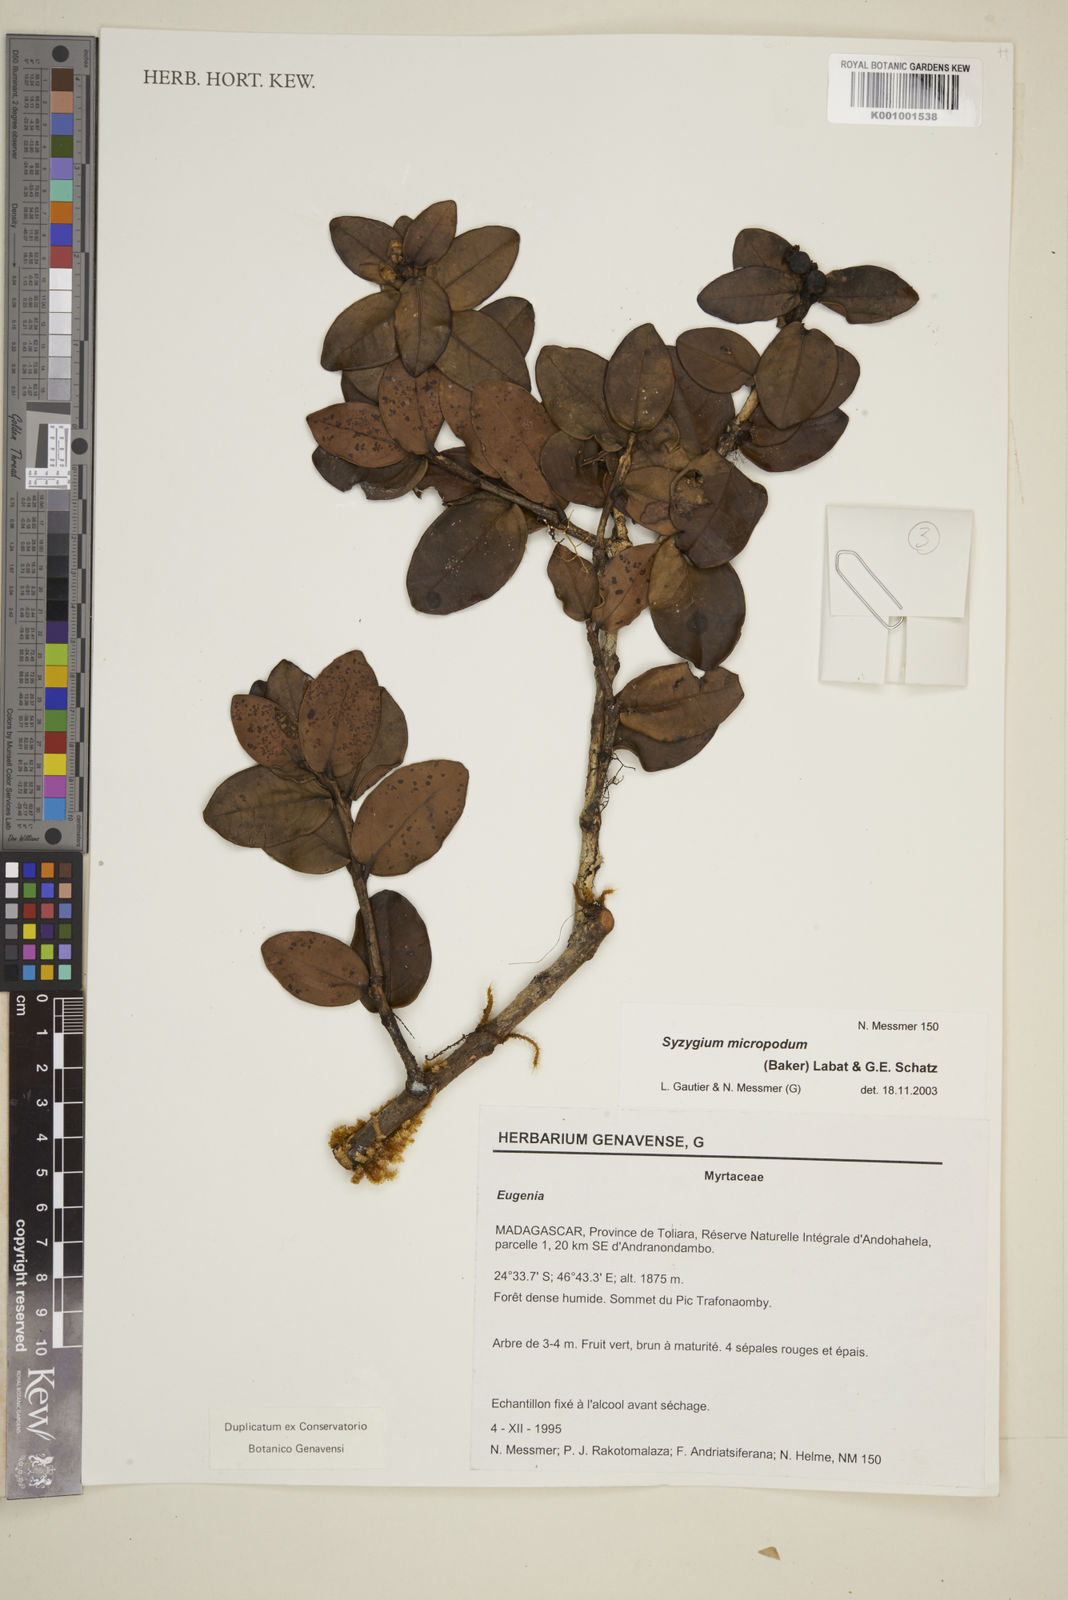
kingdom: Plantae
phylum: Tracheophyta
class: Magnoliopsida
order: Myrtales
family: Myrtaceae
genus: Eugenia
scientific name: Eugenia
